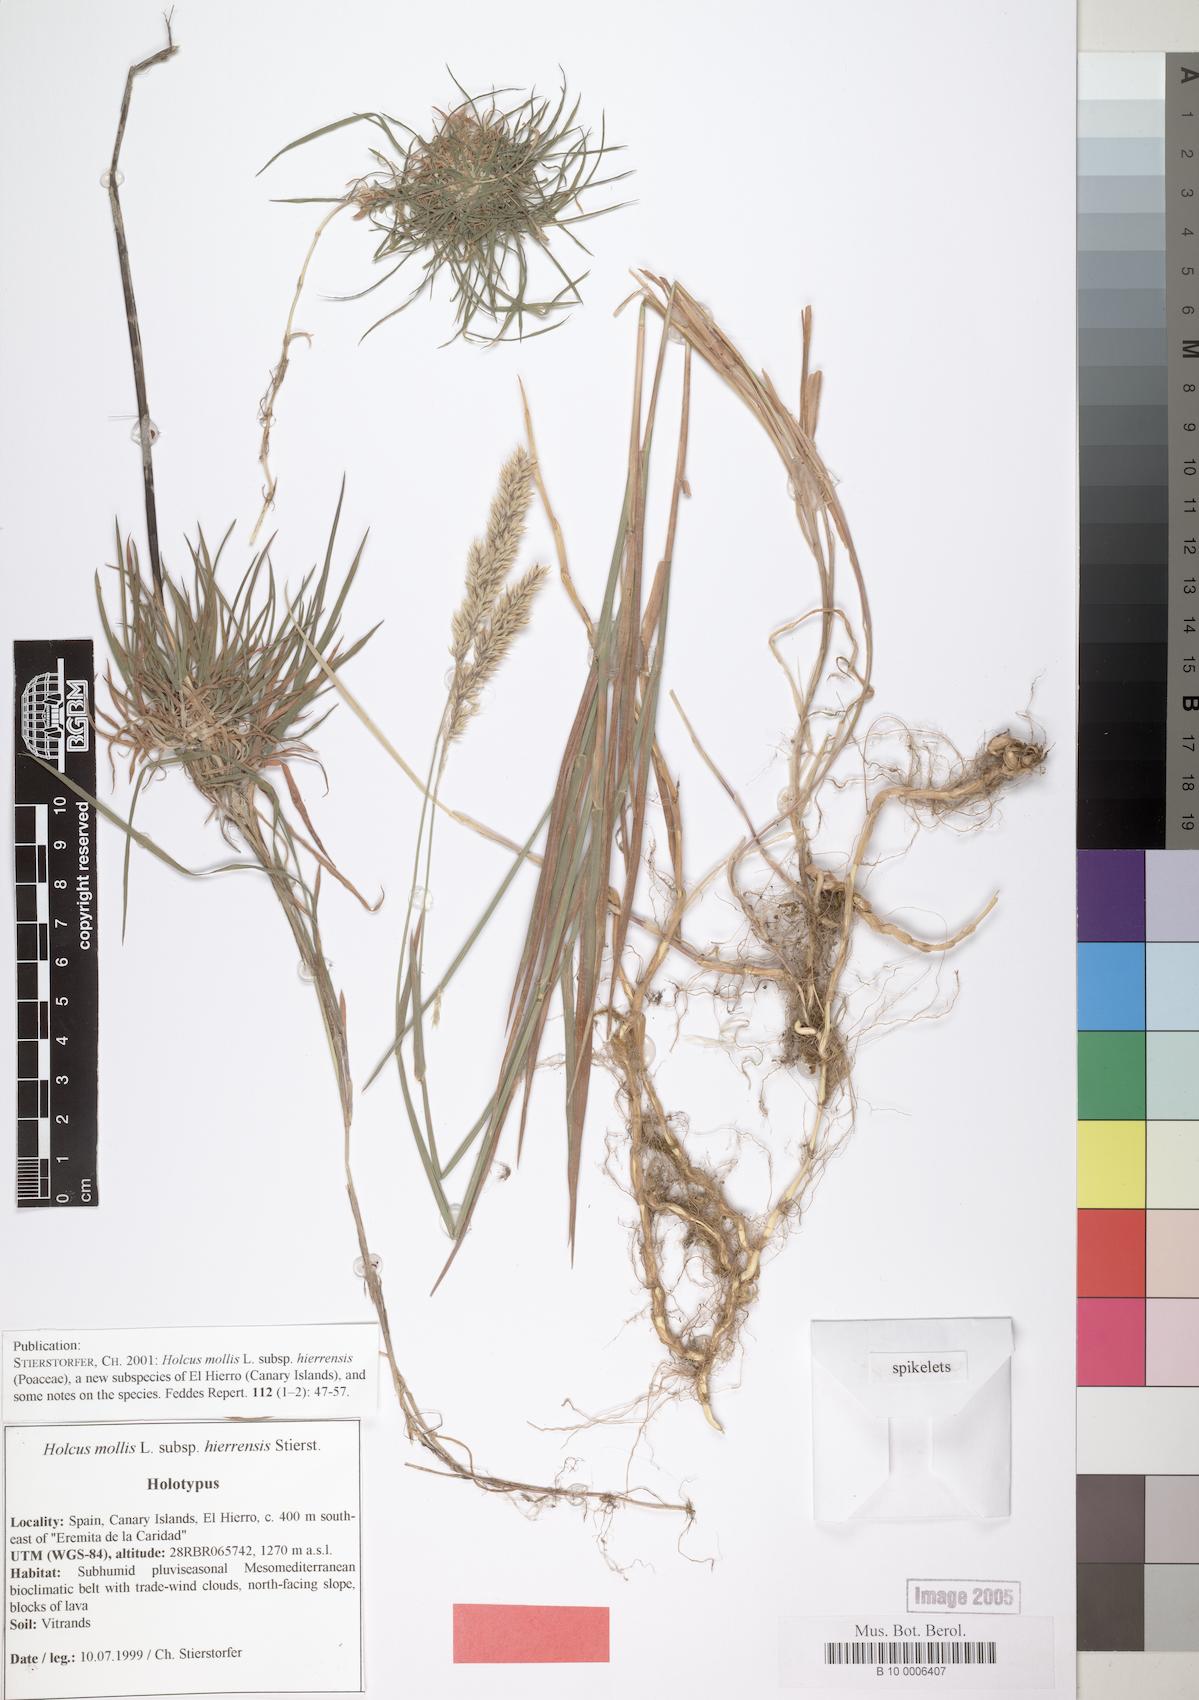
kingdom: Plantae
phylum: Tracheophyta
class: Liliopsida
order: Poales
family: Poaceae
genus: Holcus
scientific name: Holcus hierrensis
